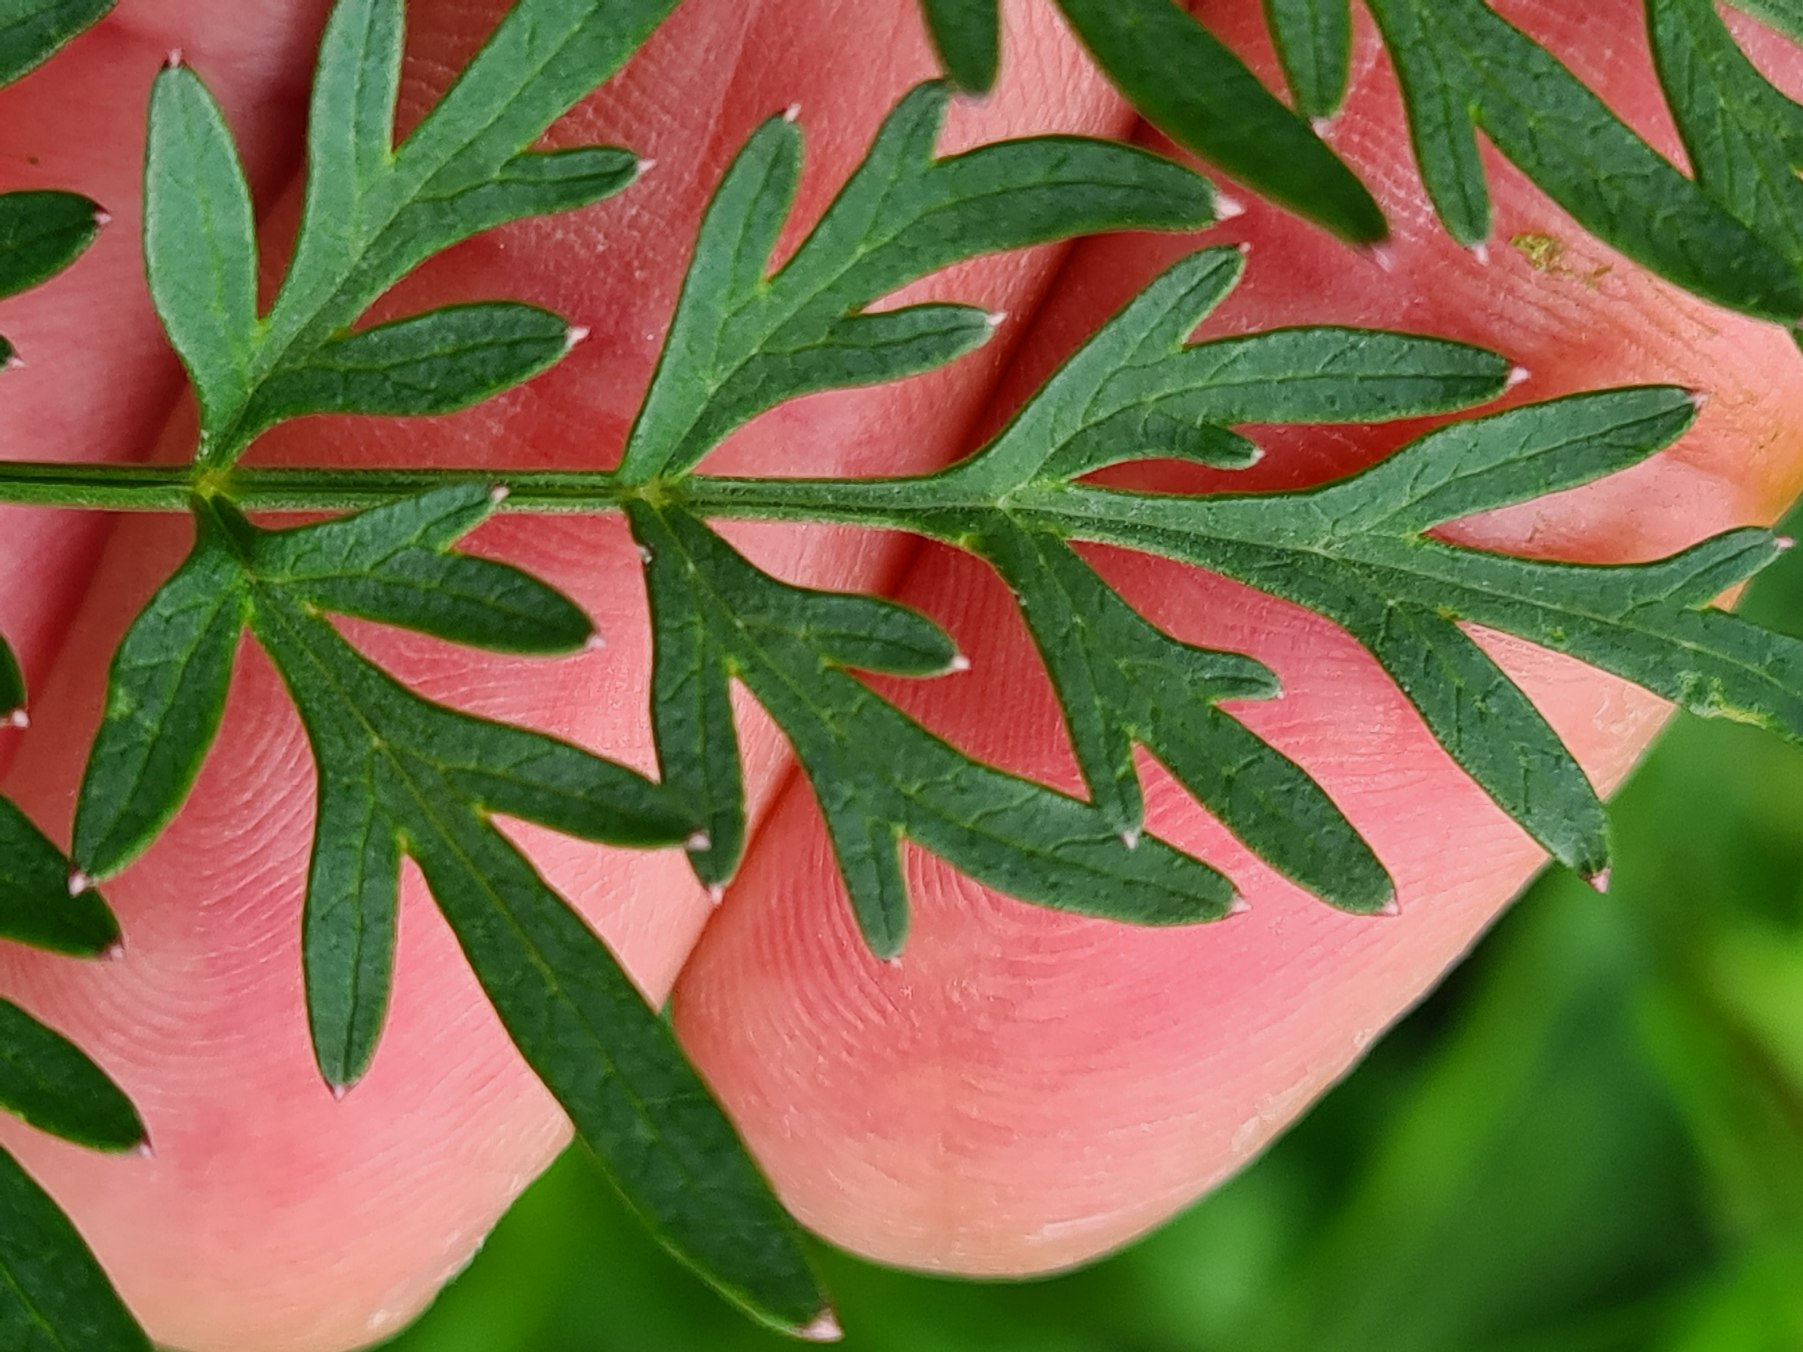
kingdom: Plantae
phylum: Tracheophyta
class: Magnoliopsida
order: Apiales
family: Apiaceae
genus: Thysselinum
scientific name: Thysselinum palustre
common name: Kær-svovlrod
